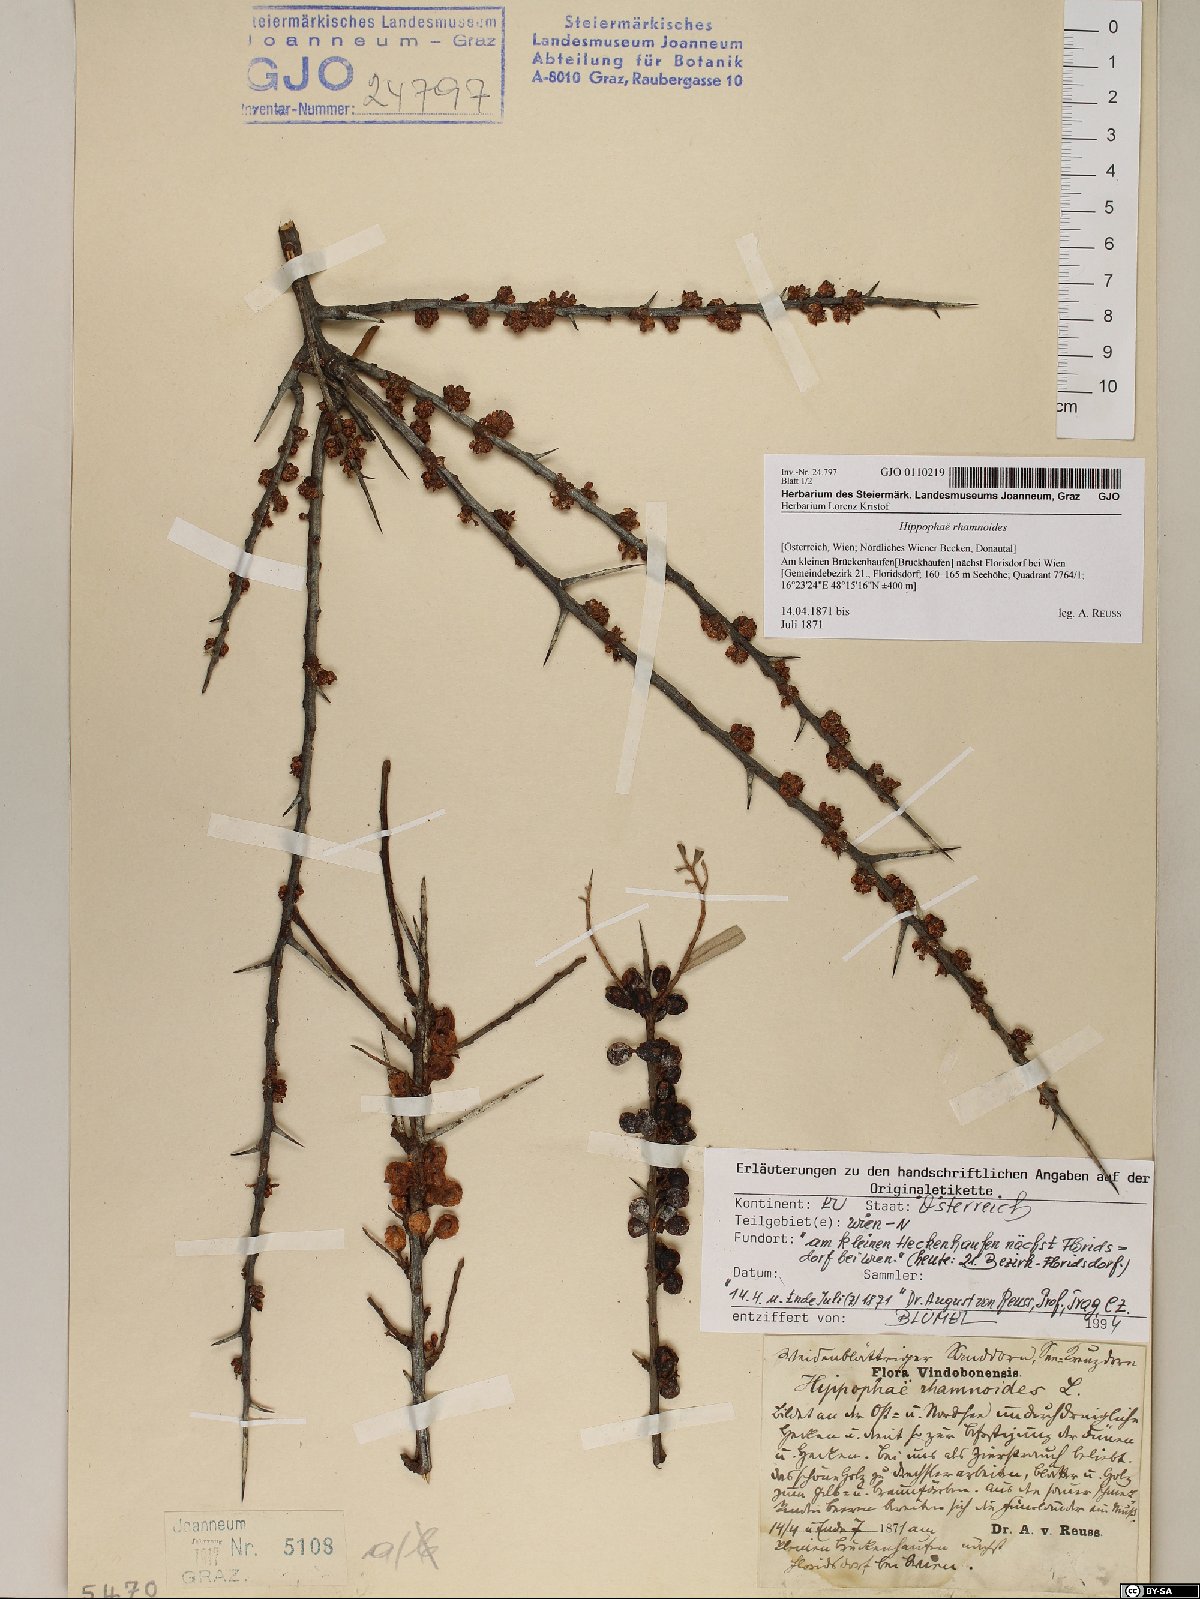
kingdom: Plantae
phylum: Tracheophyta
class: Magnoliopsida
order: Rosales
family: Elaeagnaceae
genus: Hippophae
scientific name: Hippophae rhamnoides
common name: Sea-buckthorn
